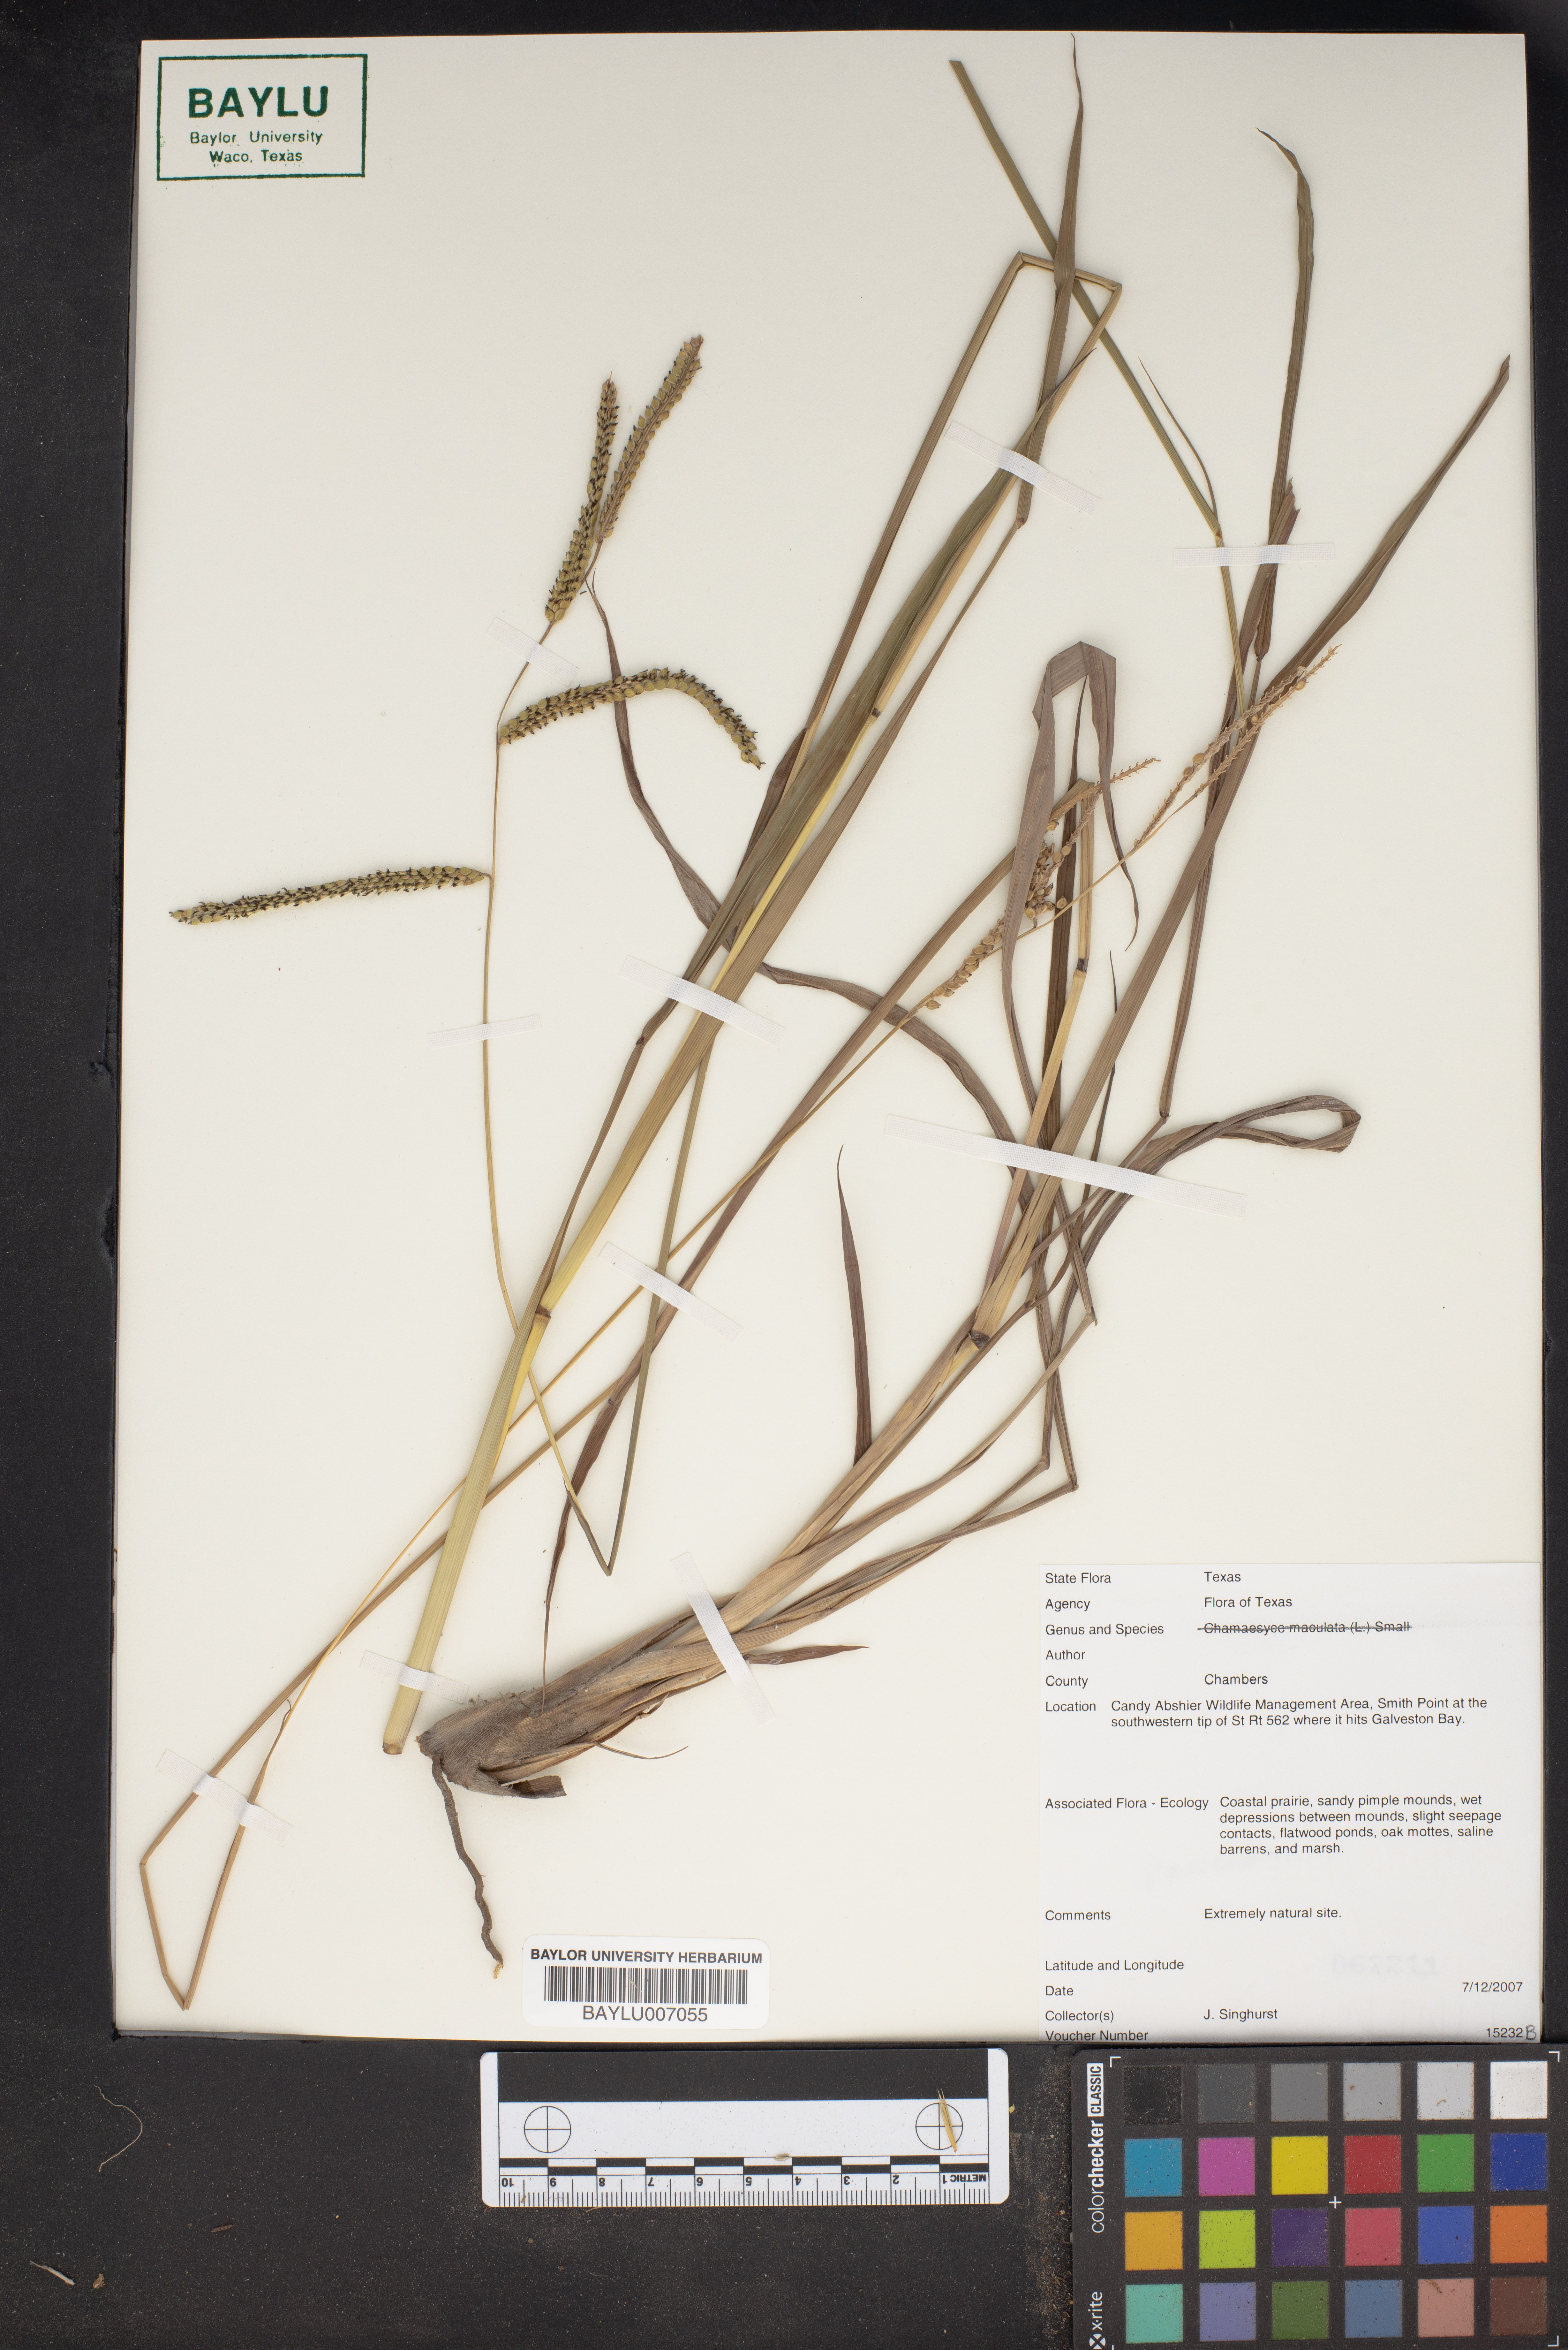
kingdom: Plantae
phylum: Tracheophyta
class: Liliopsida
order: Poales
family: Poaceae
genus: Paspalum
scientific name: Paspalum plicatulum
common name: Top paspalum
